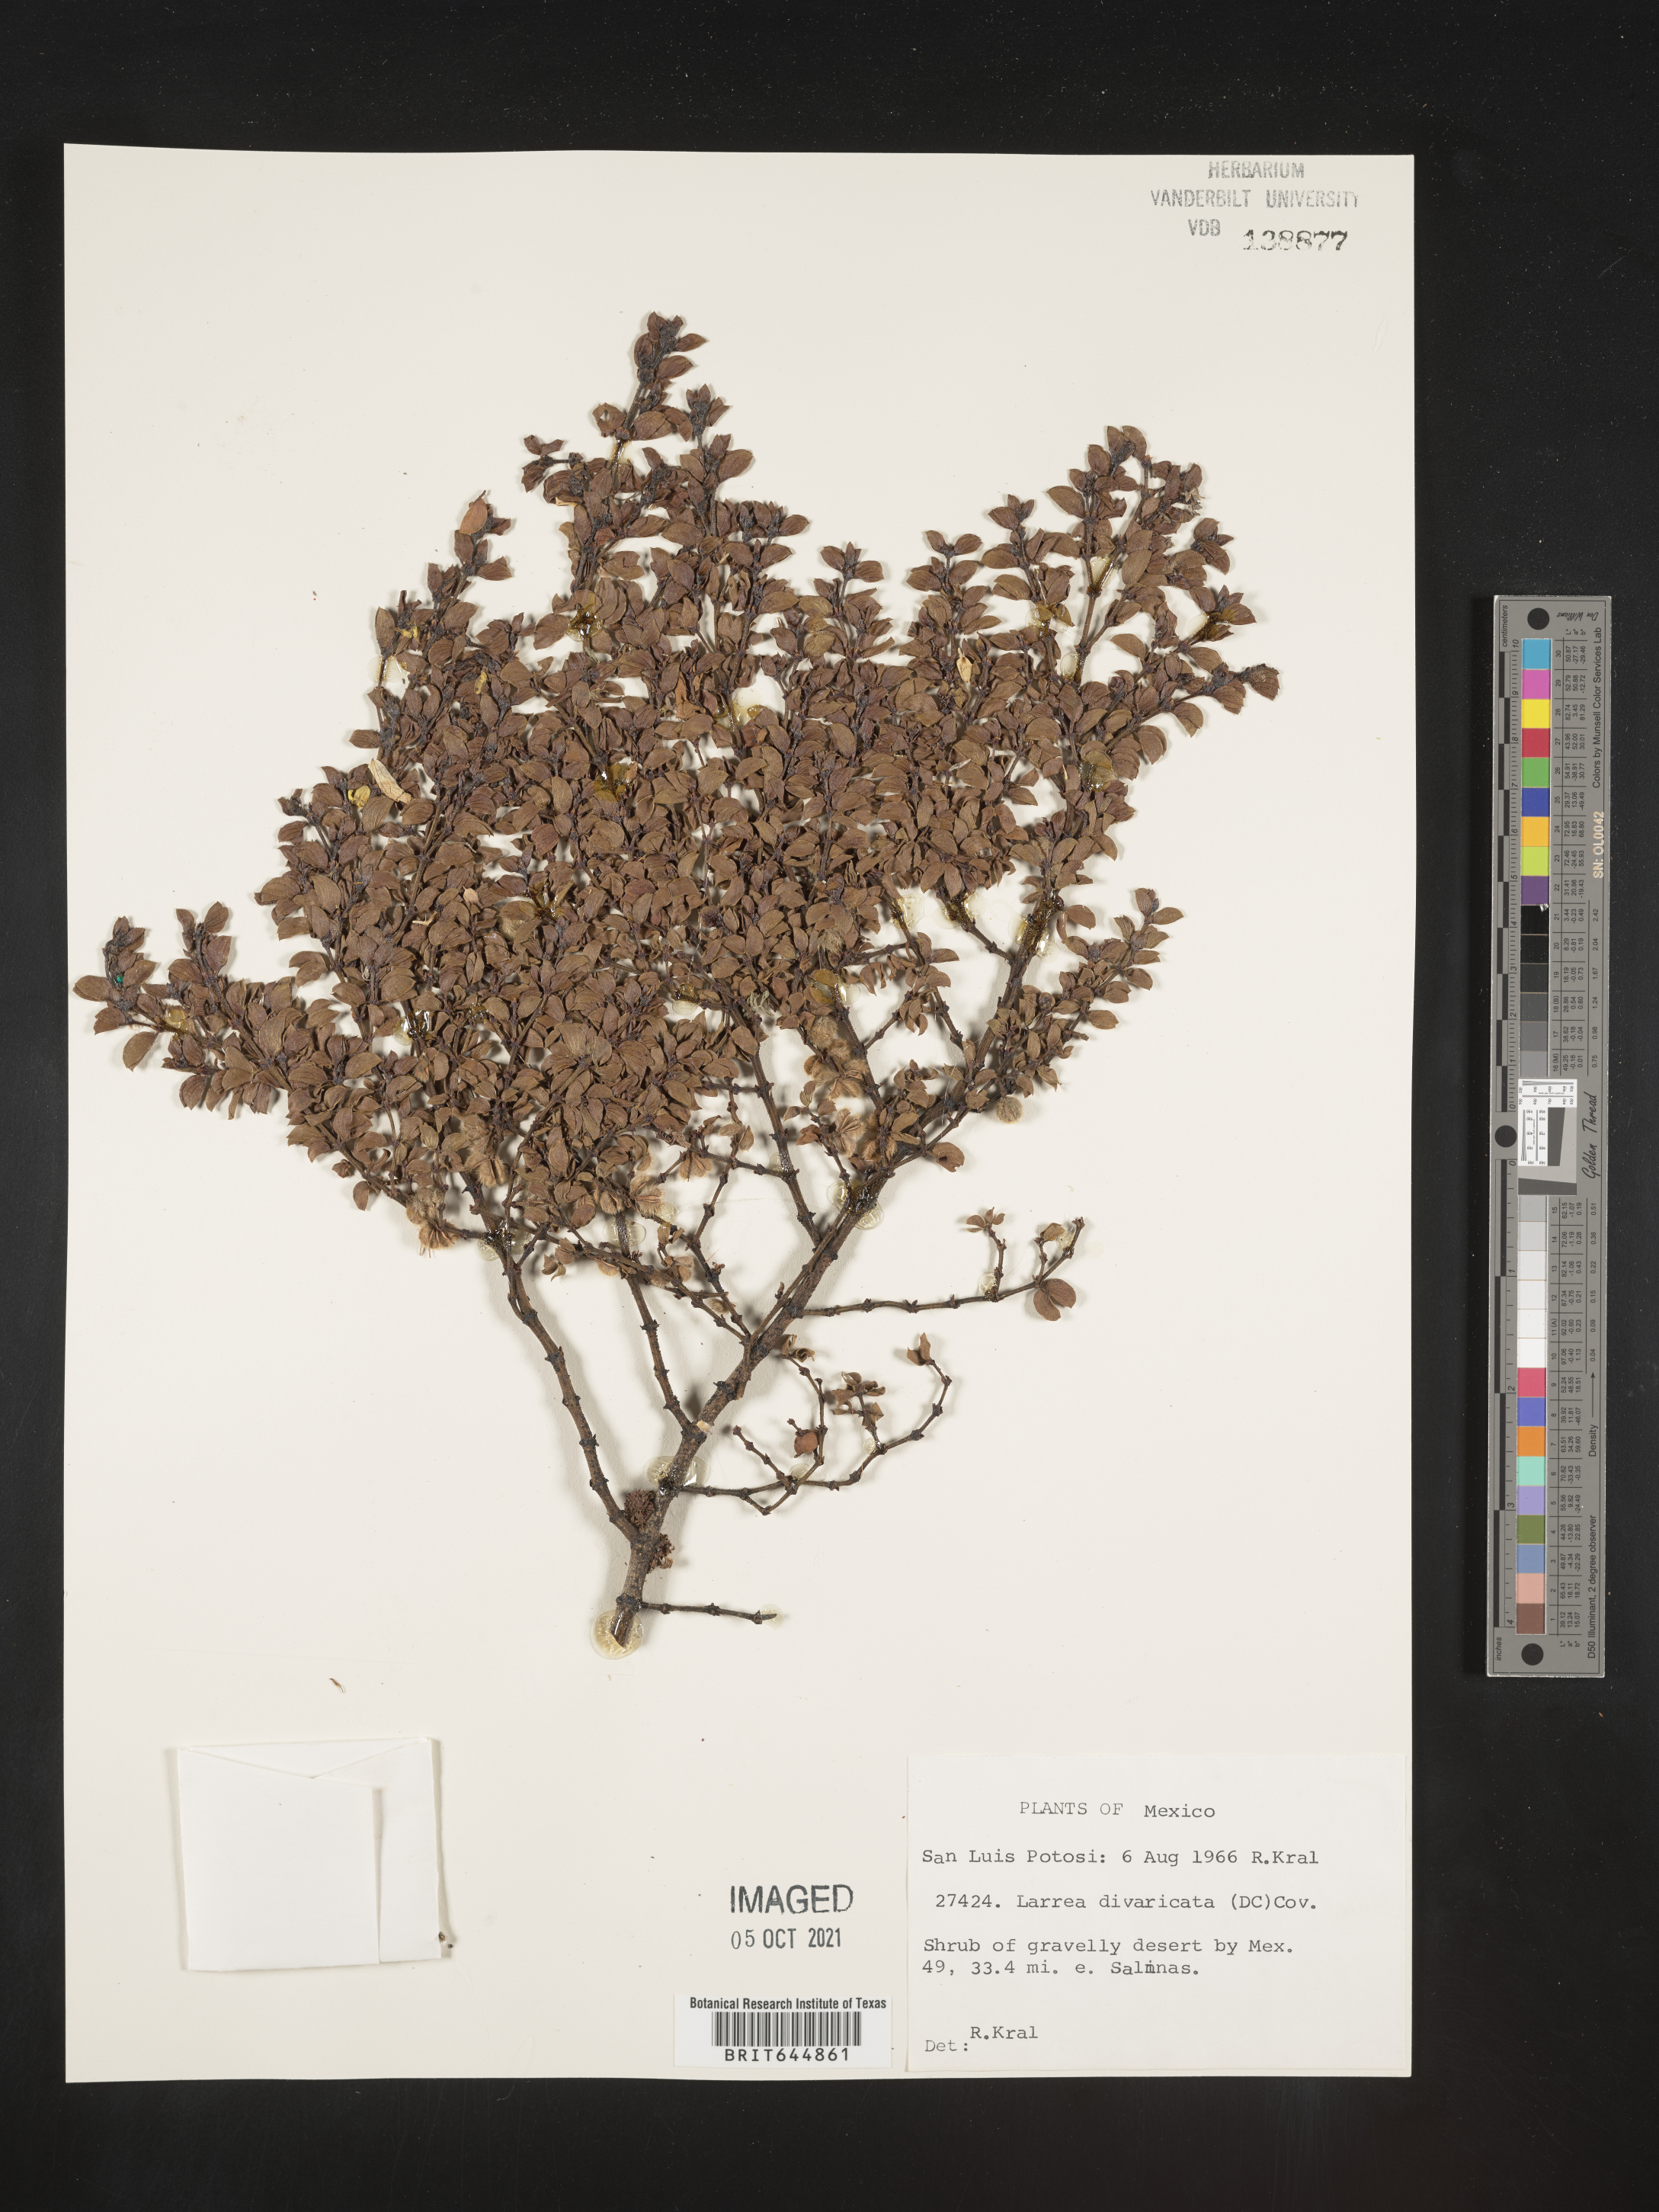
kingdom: Plantae
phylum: Tracheophyta
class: Magnoliopsida
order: Zygophyllales
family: Zygophyllaceae
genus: Larrea
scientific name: Larrea
